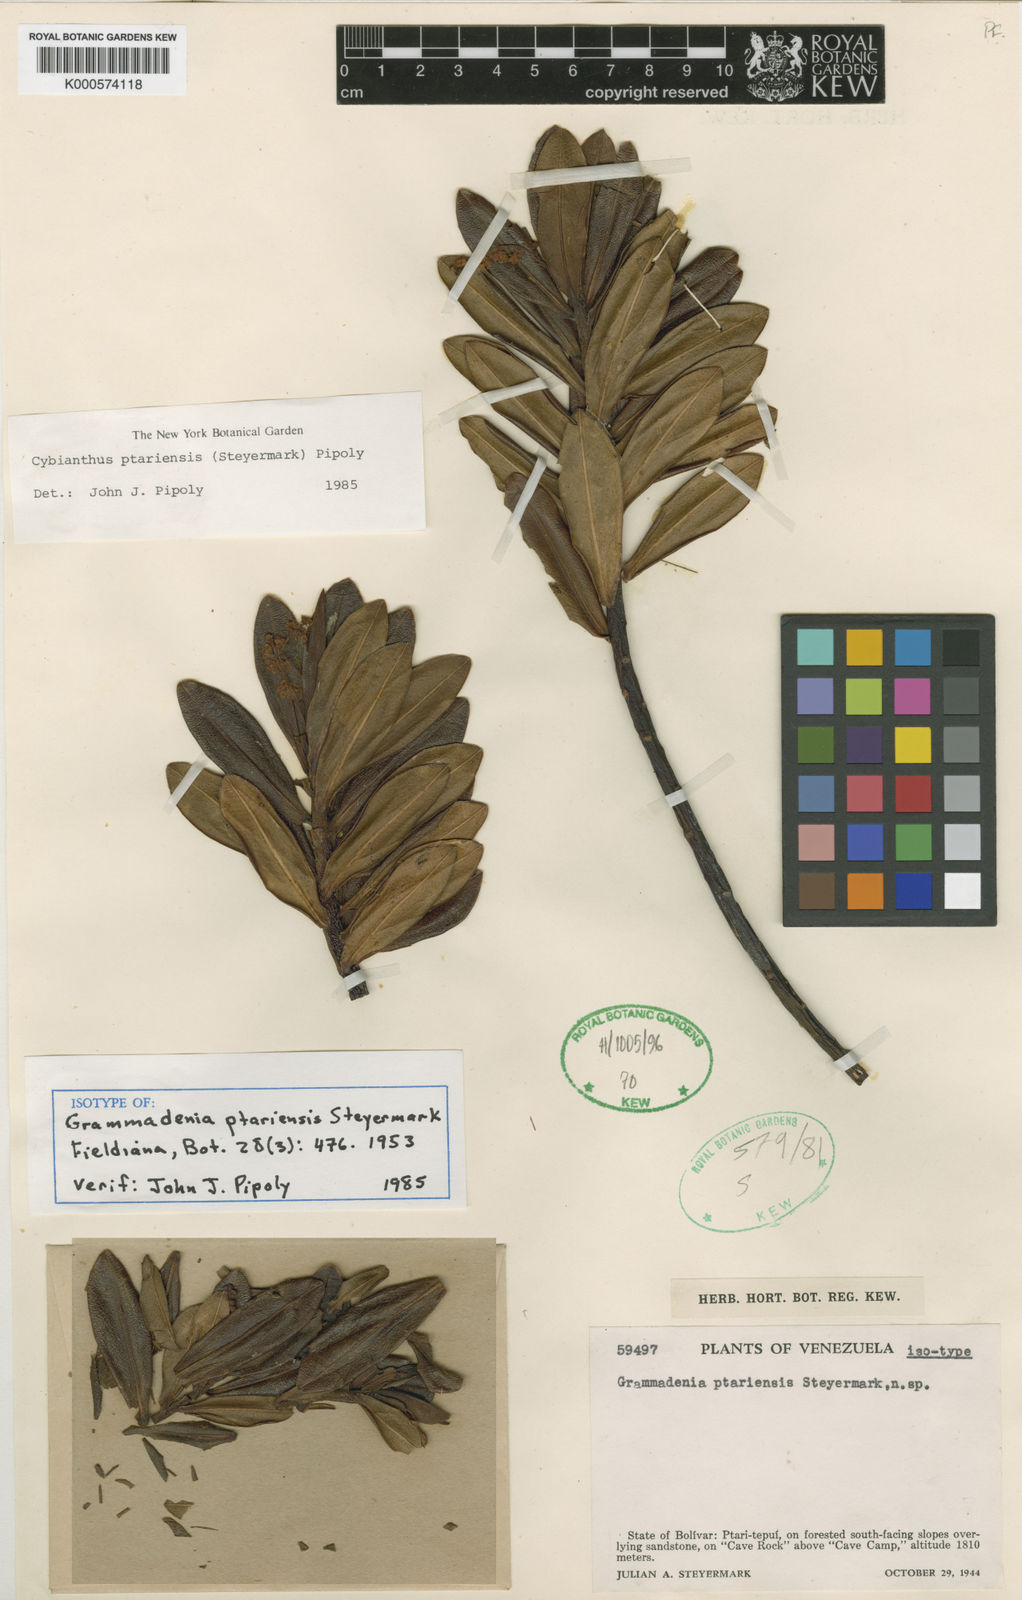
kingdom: Plantae
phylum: Tracheophyta
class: Magnoliopsida
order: Ericales
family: Primulaceae
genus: Cybianthus
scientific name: Cybianthus ptariensis
